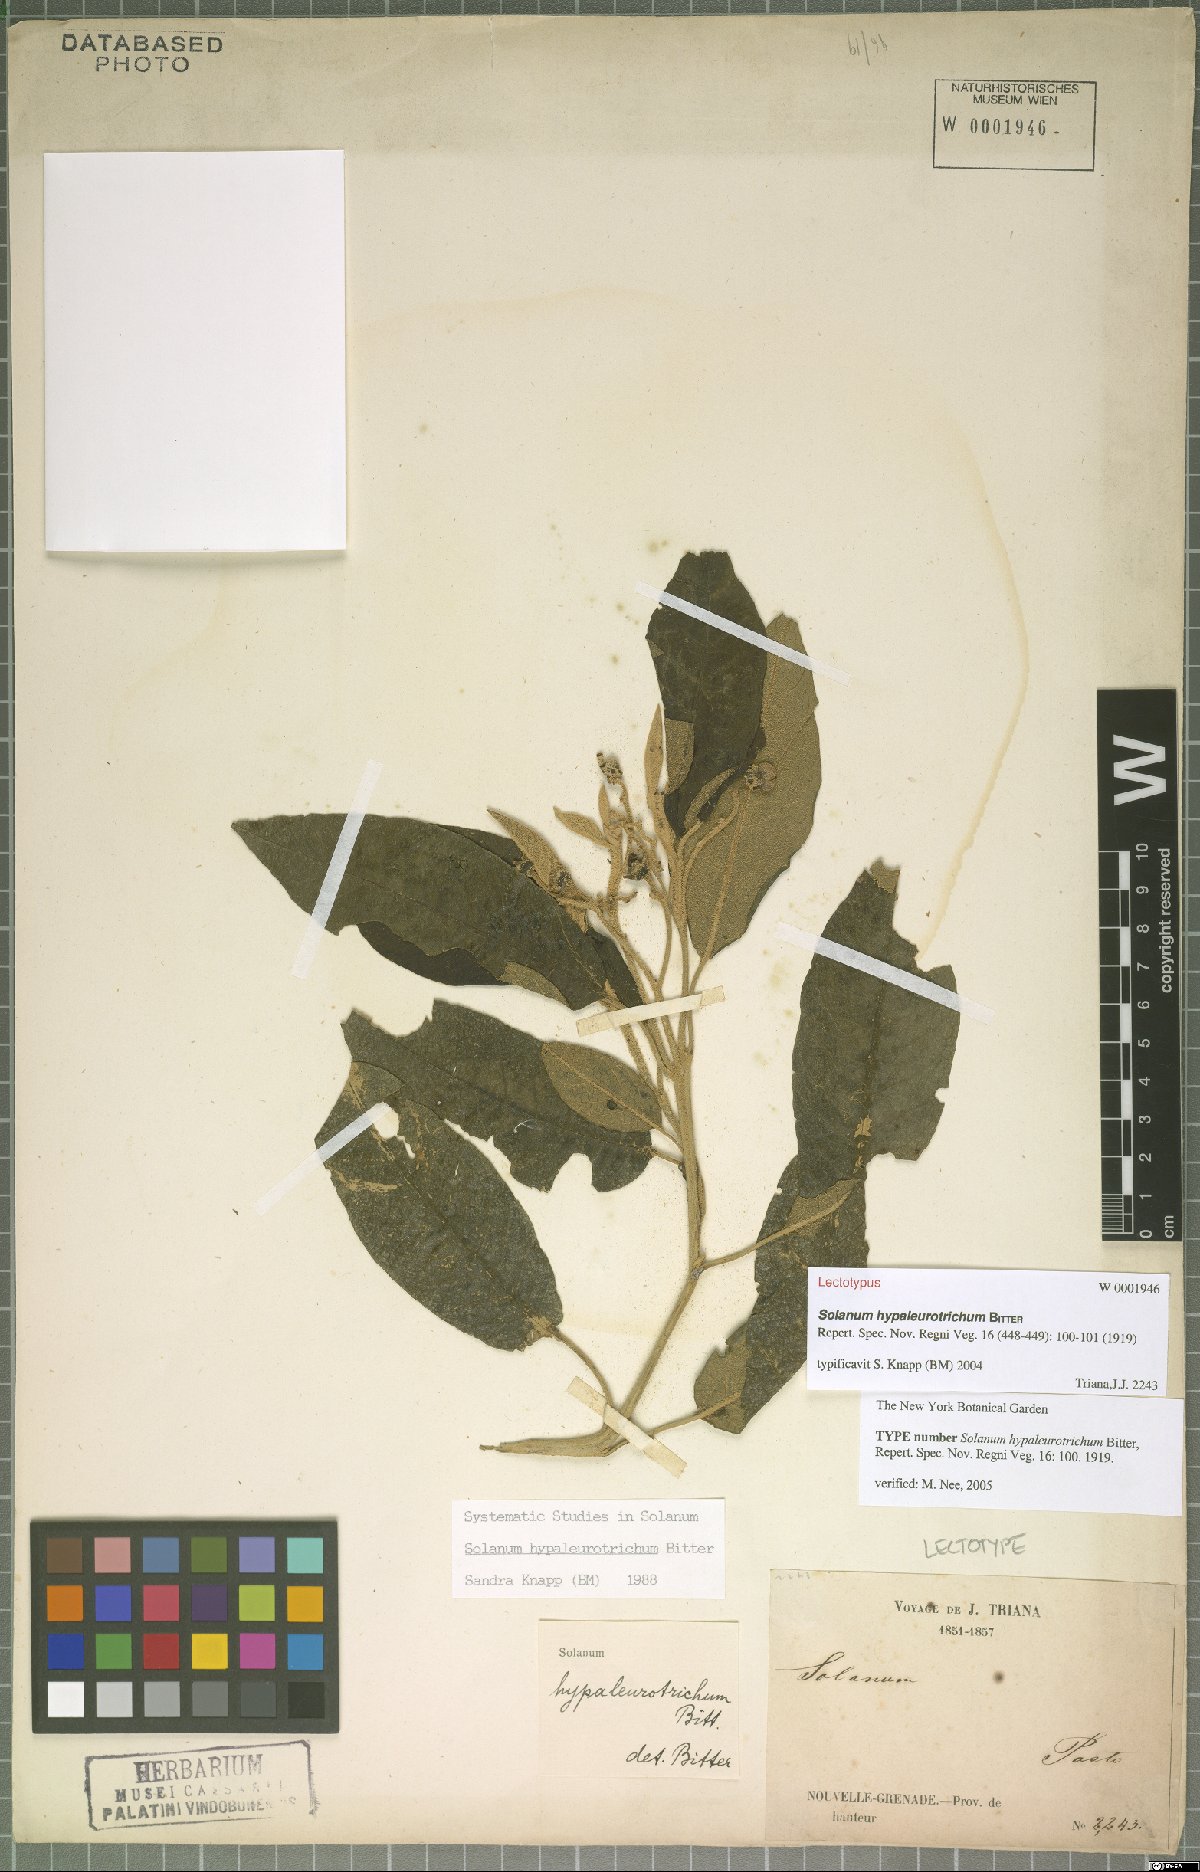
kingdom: Plantae
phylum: Tracheophyta
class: Magnoliopsida
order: Solanales
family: Solanaceae
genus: Solanum
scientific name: Solanum hypaleurotrichum
